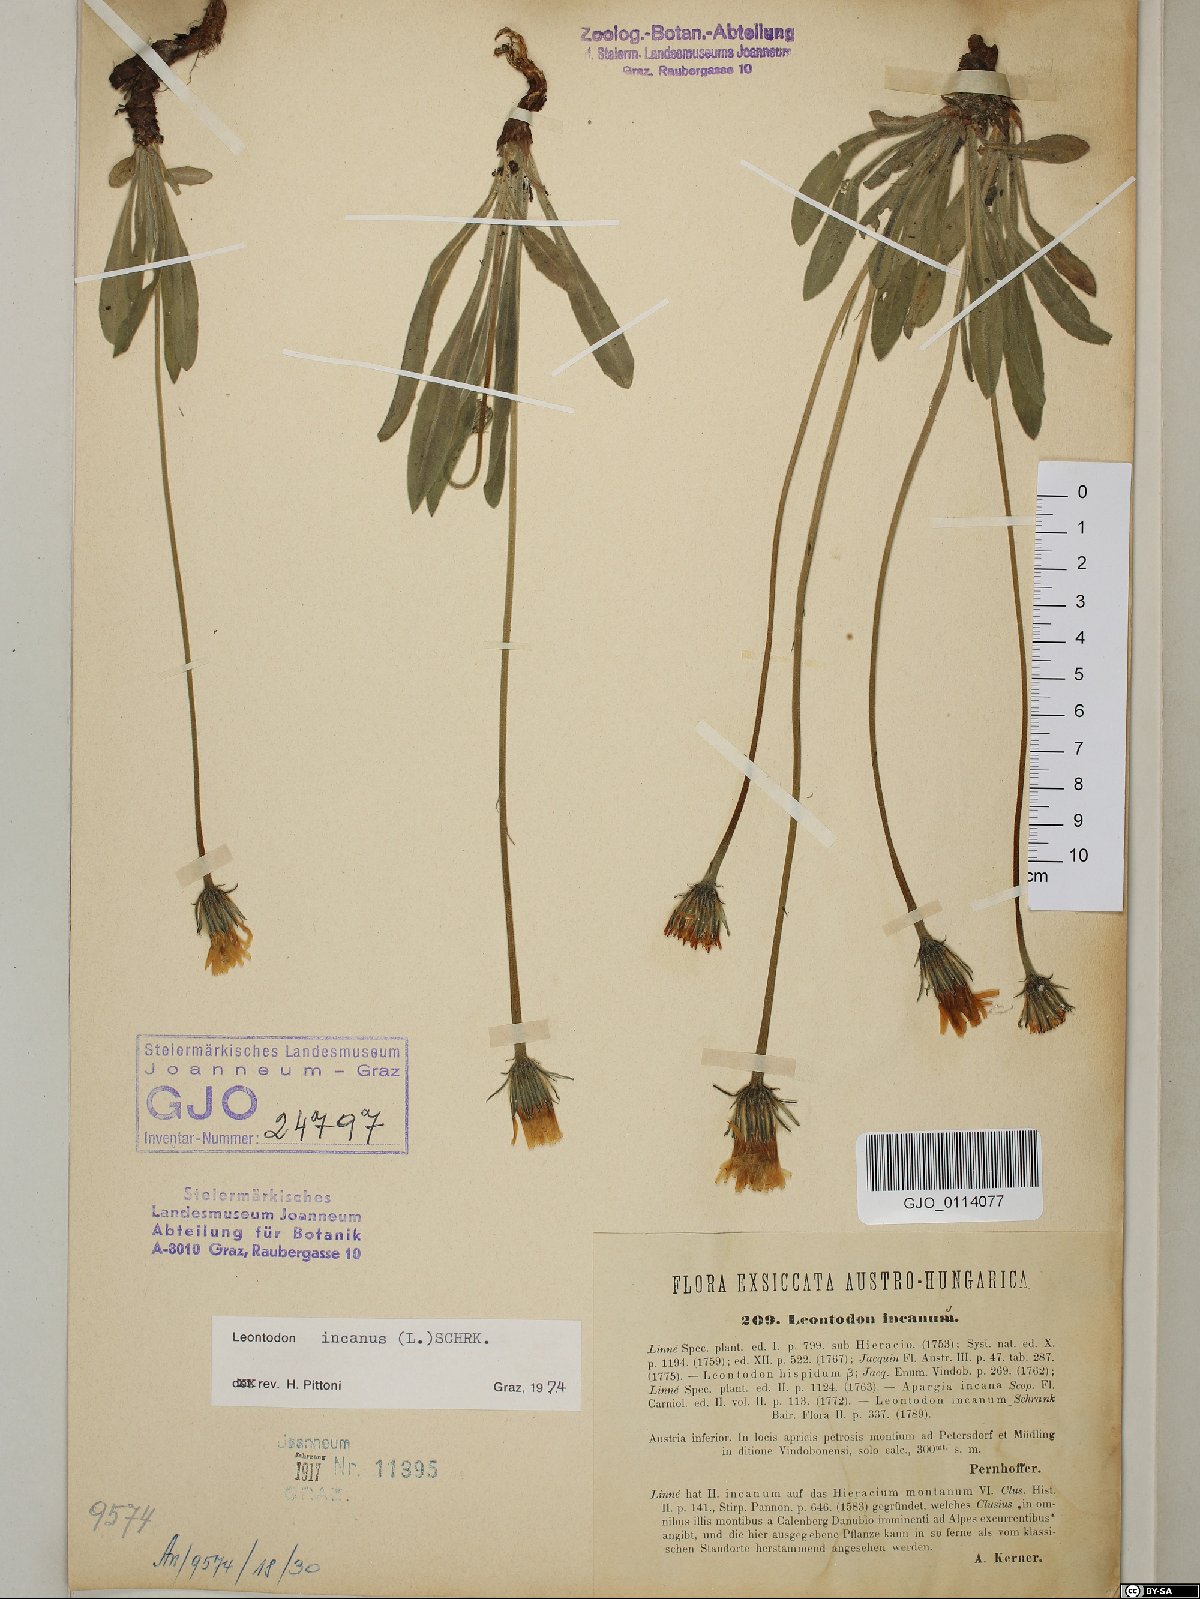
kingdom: Plantae
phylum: Tracheophyta
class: Magnoliopsida
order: Asterales
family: Asteraceae
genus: Leontodon
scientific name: Leontodon incanus
